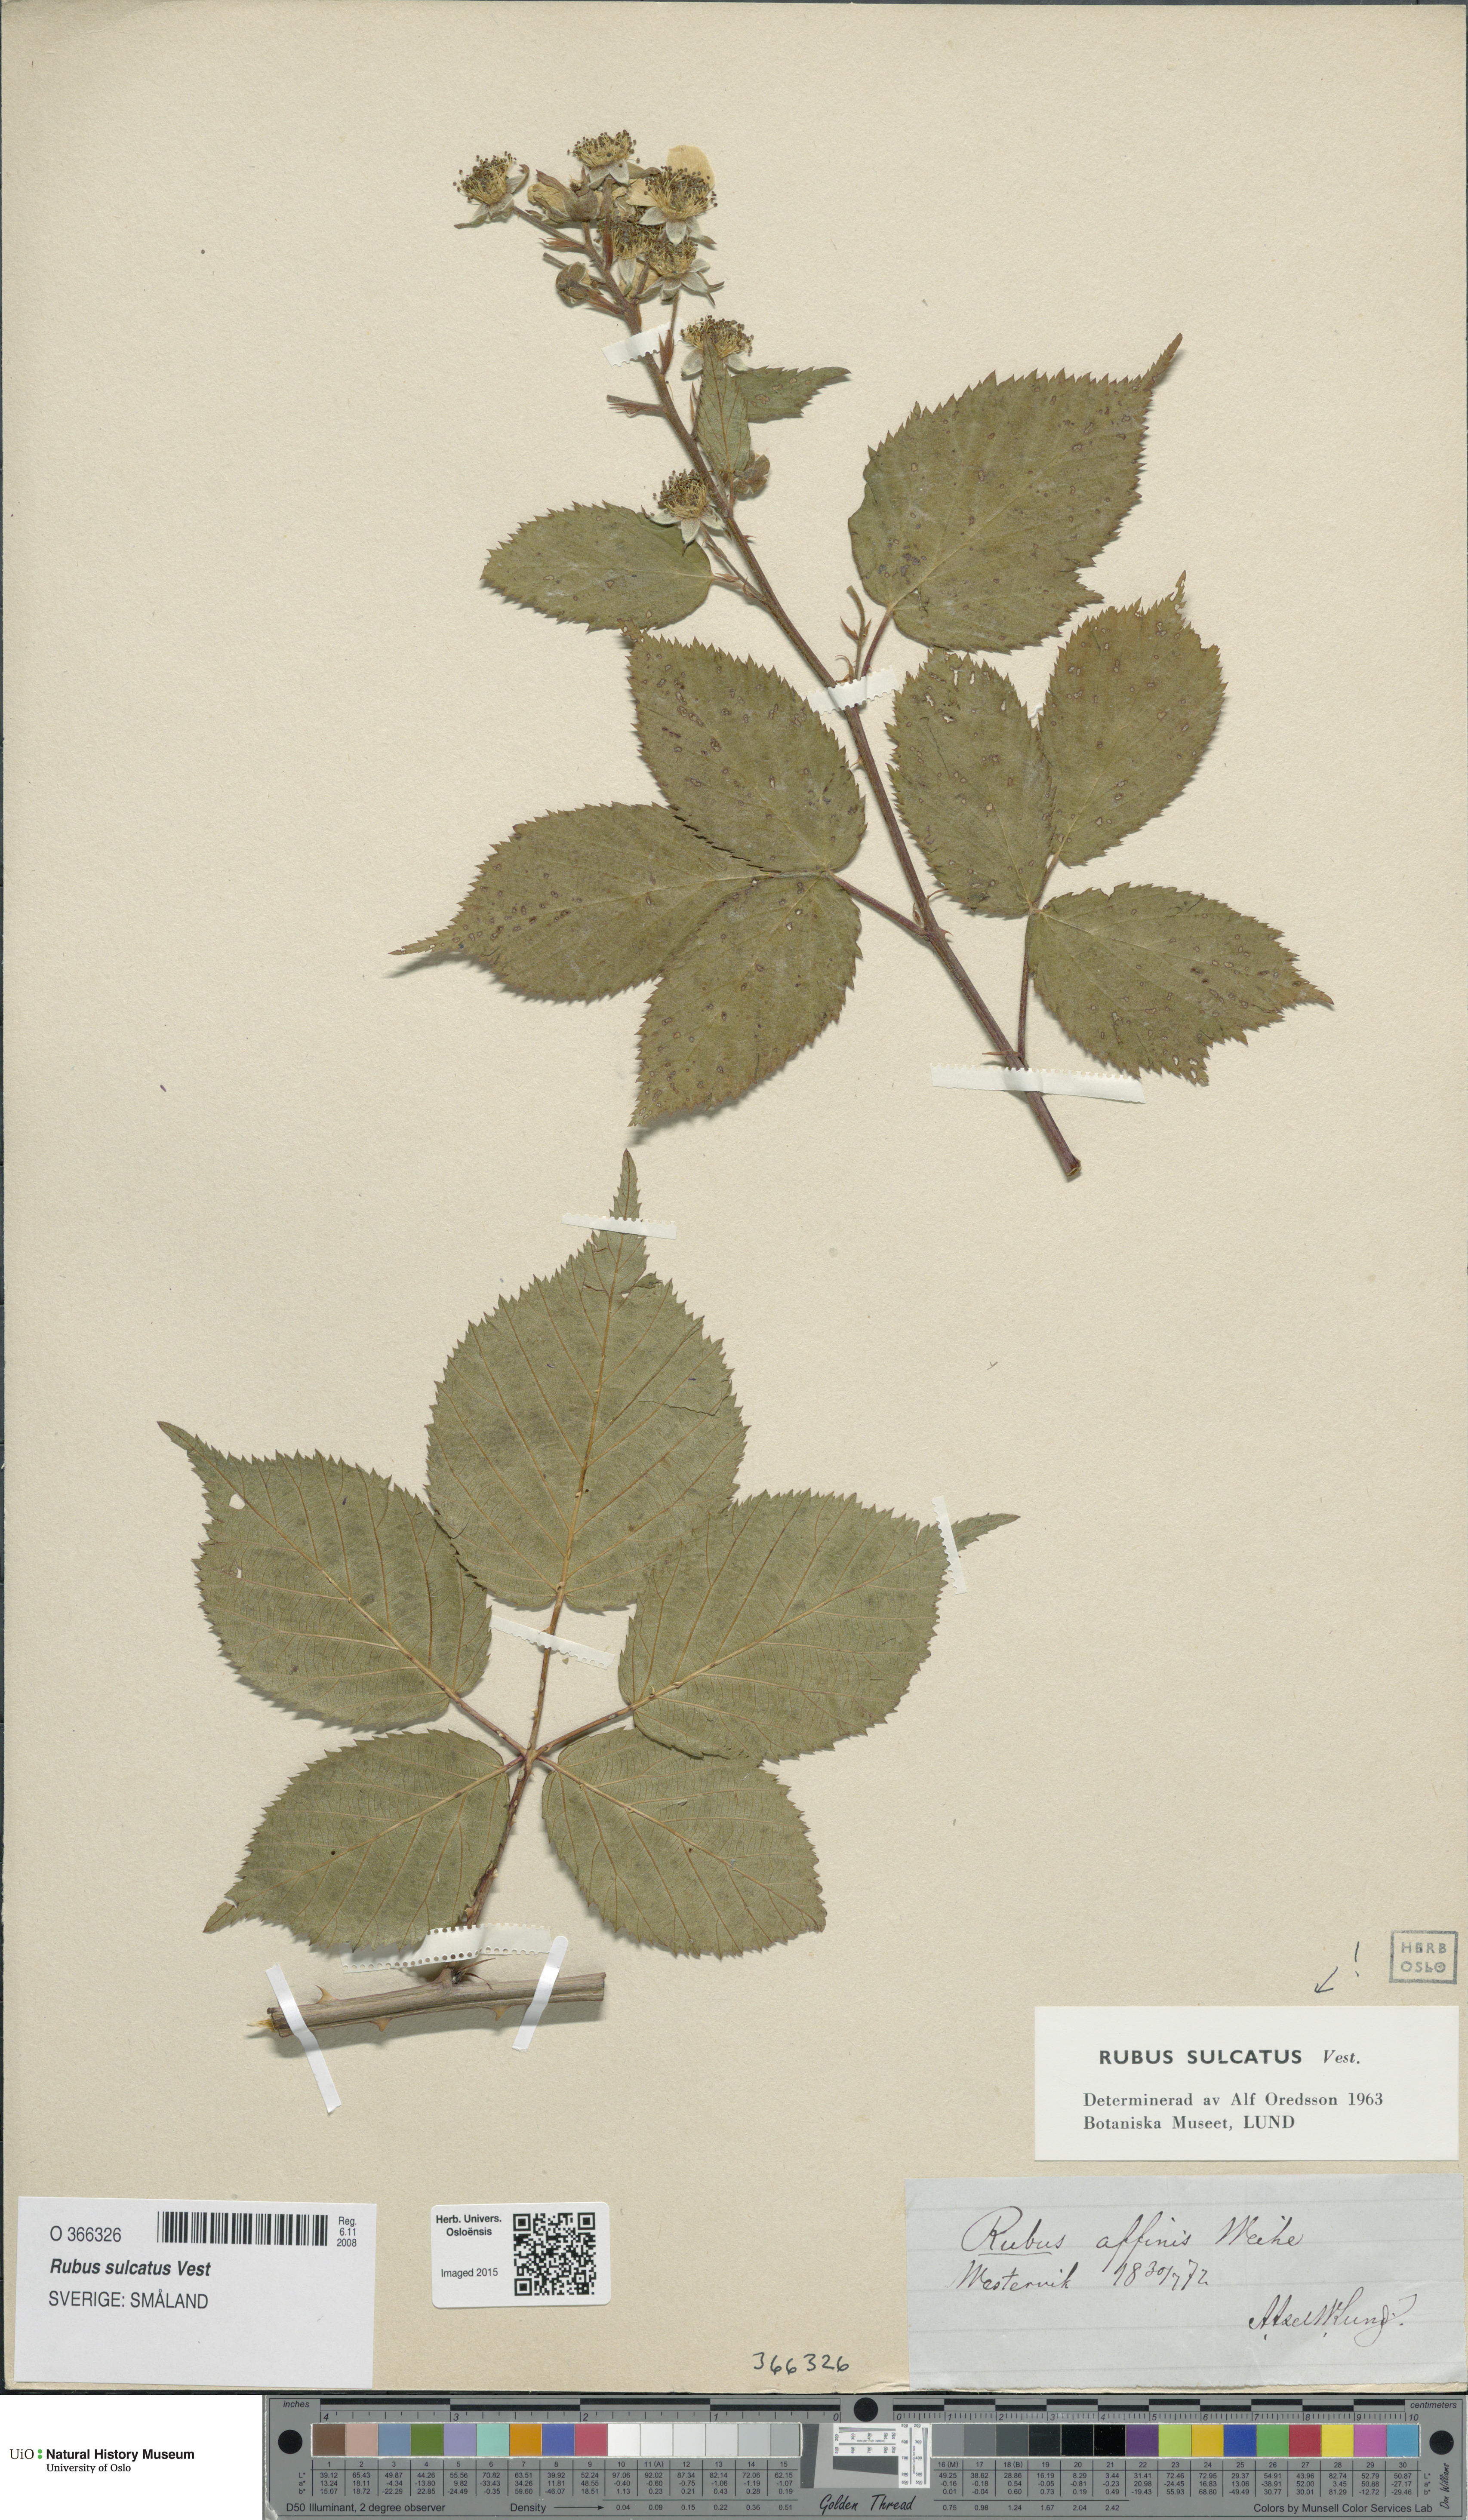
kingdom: Plantae
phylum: Tracheophyta
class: Magnoliopsida
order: Rosales
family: Rosaceae
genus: Rubus
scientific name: Rubus sulcatus
